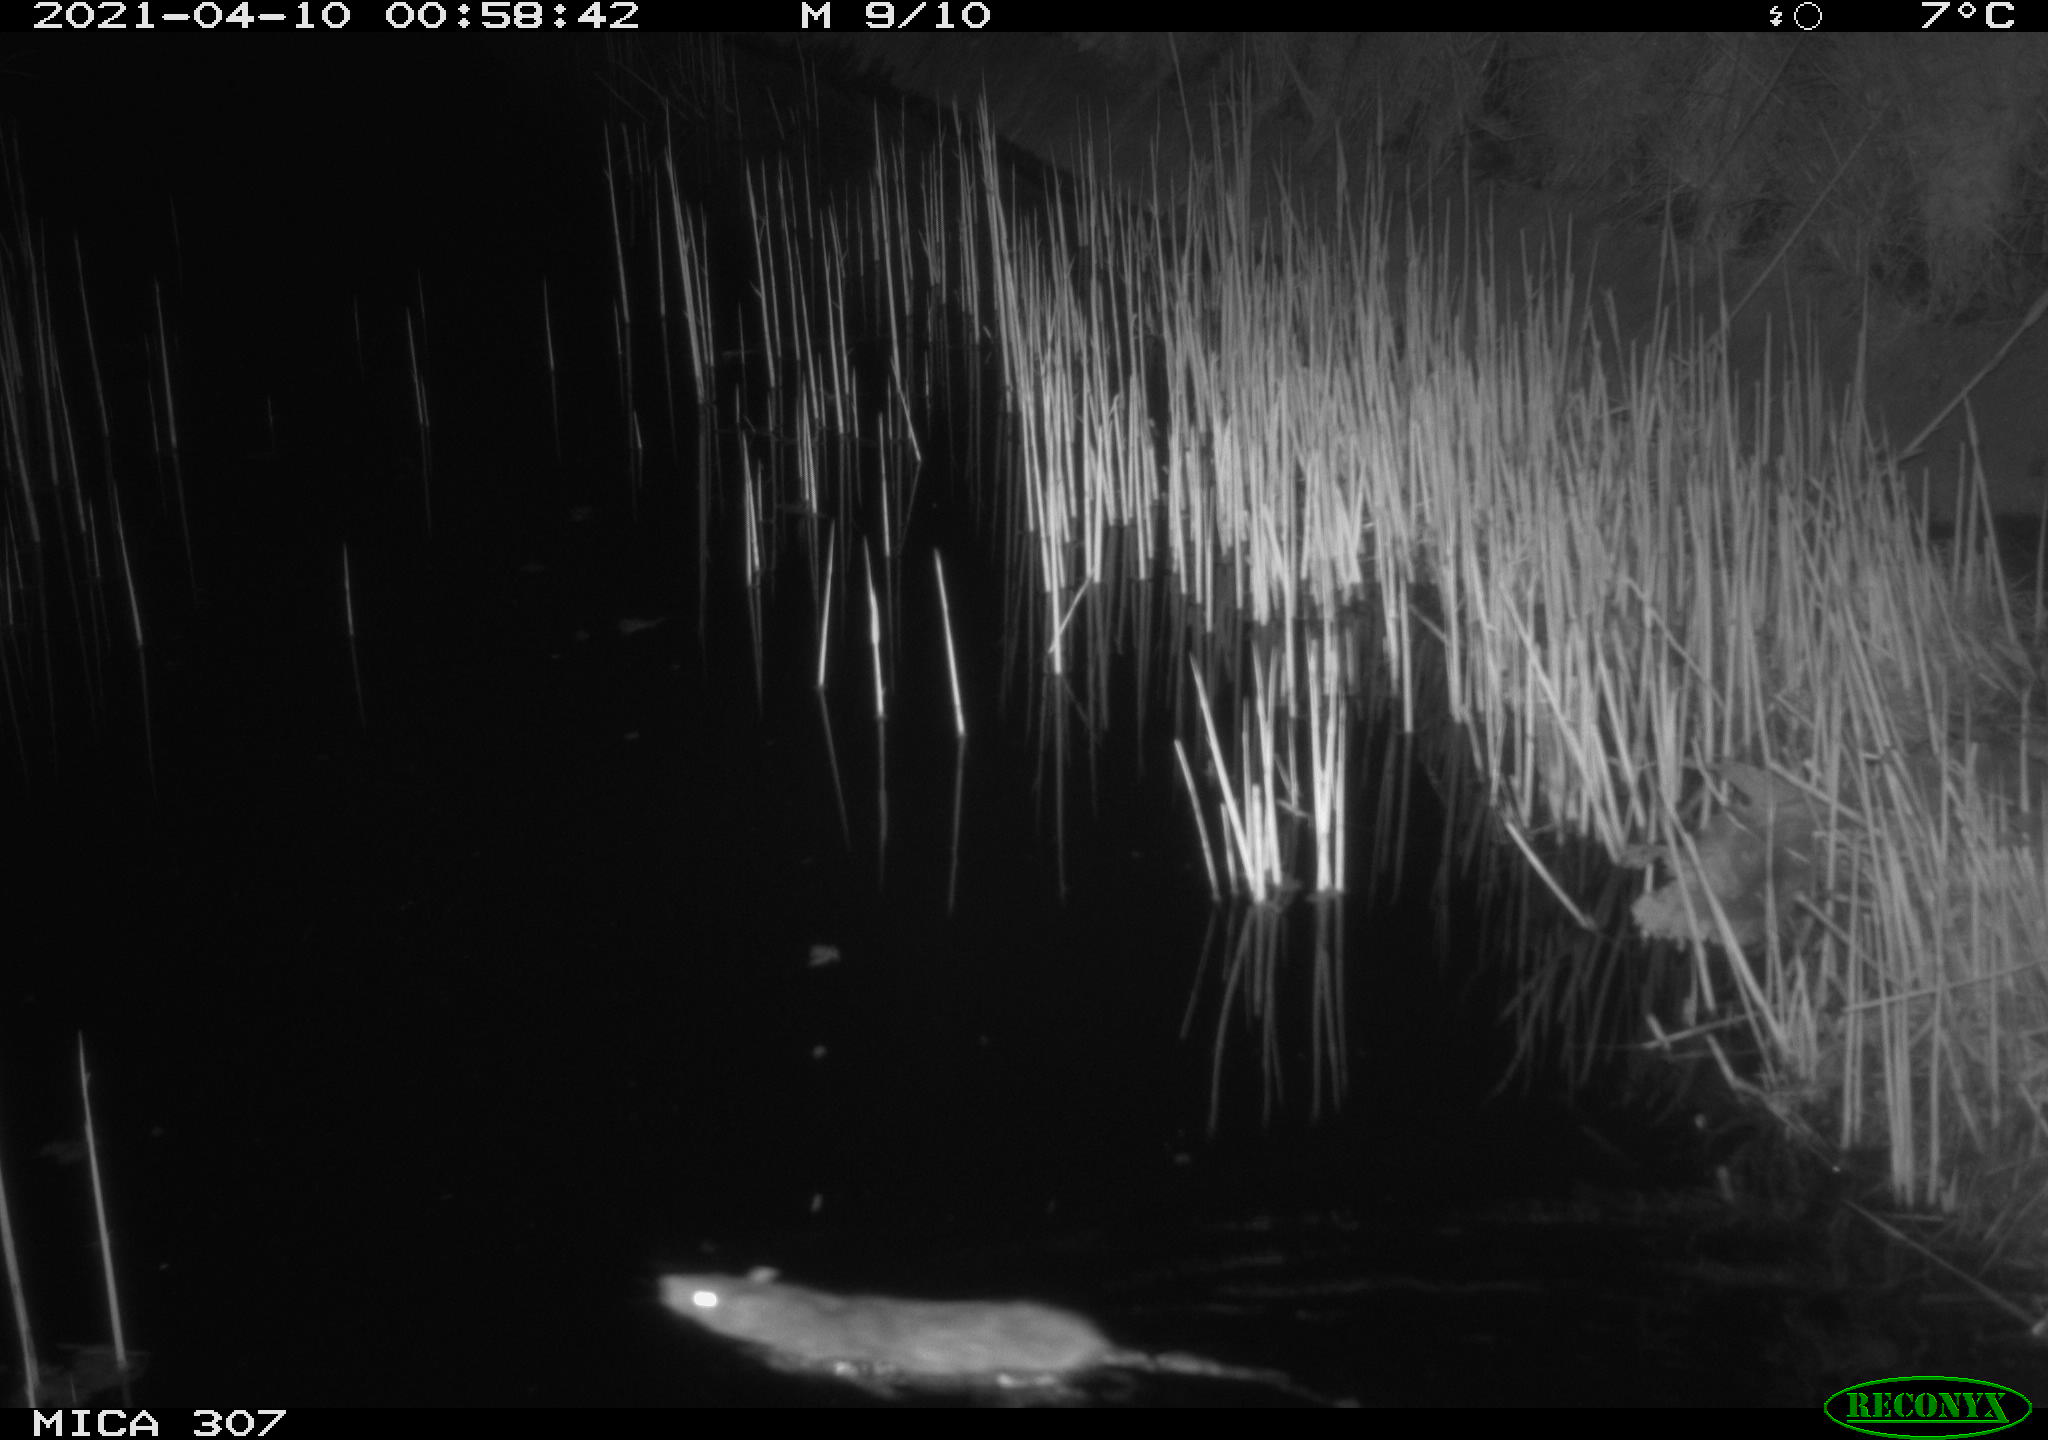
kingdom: Animalia
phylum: Chordata
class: Mammalia
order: Rodentia
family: Muridae
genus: Rattus
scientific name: Rattus norvegicus
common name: Brown rat
